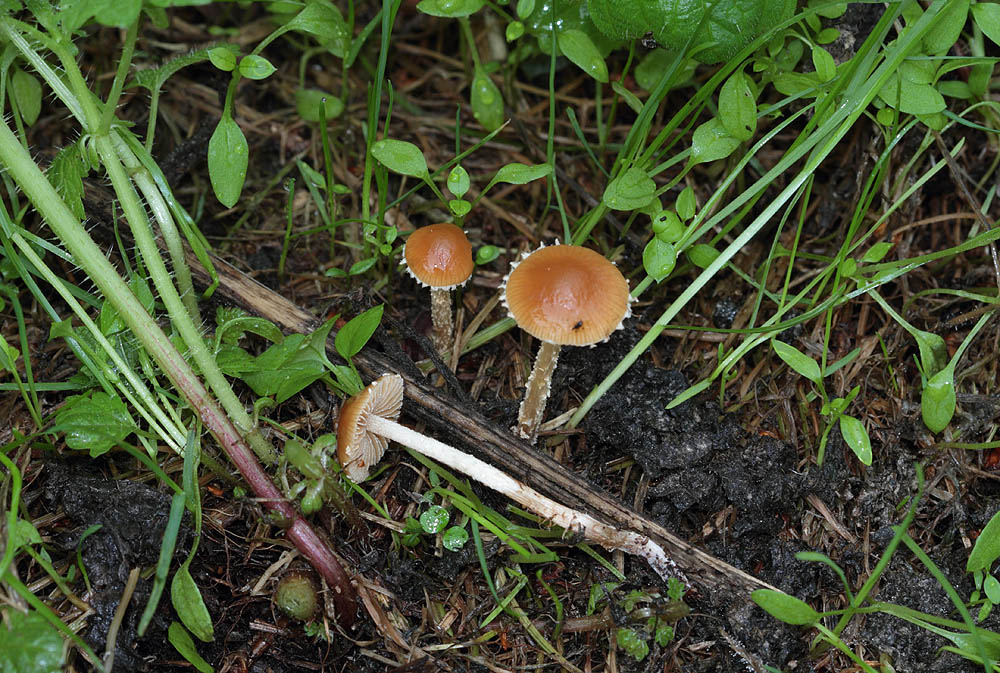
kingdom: Fungi
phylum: Basidiomycota
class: Agaricomycetes
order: Agaricales
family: Bolbitiaceae
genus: Pholiotina
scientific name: Pholiotina
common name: dansehat
